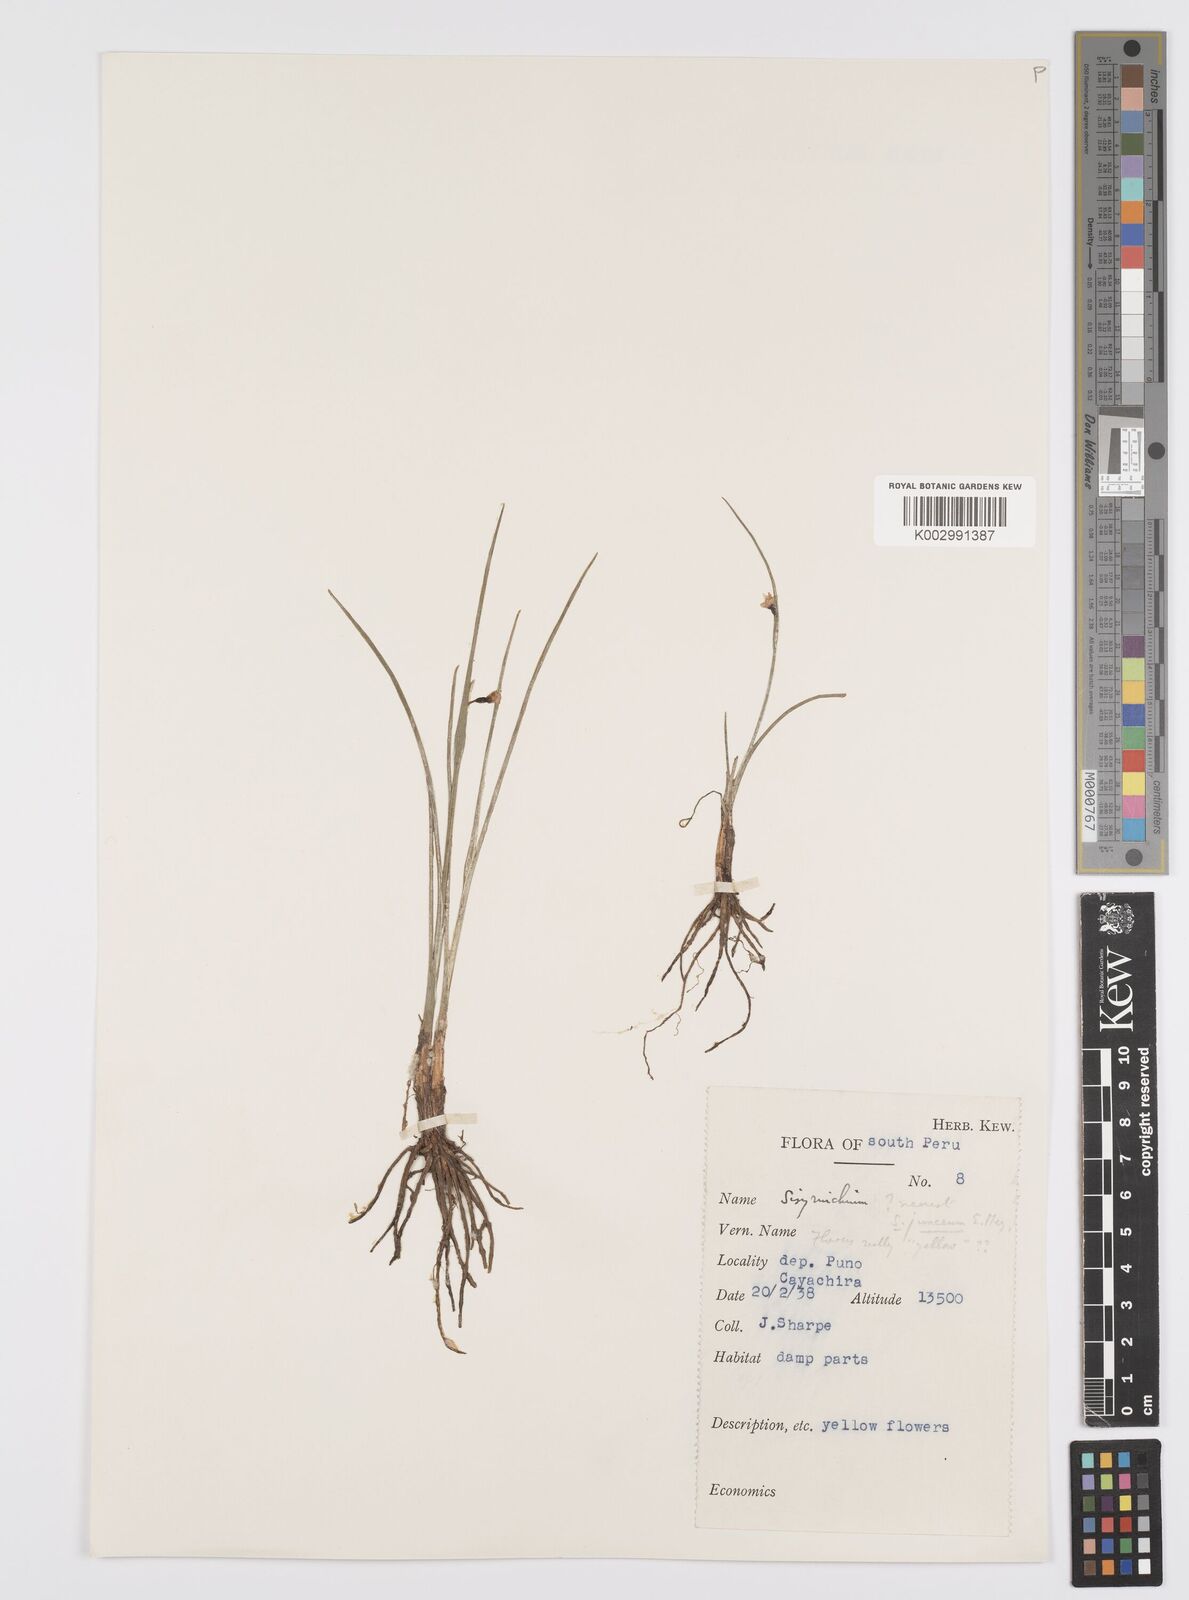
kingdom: Plantae
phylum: Tracheophyta
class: Liliopsida
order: Asparagales
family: Iridaceae
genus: Olsynium
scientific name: Olsynium junceum
